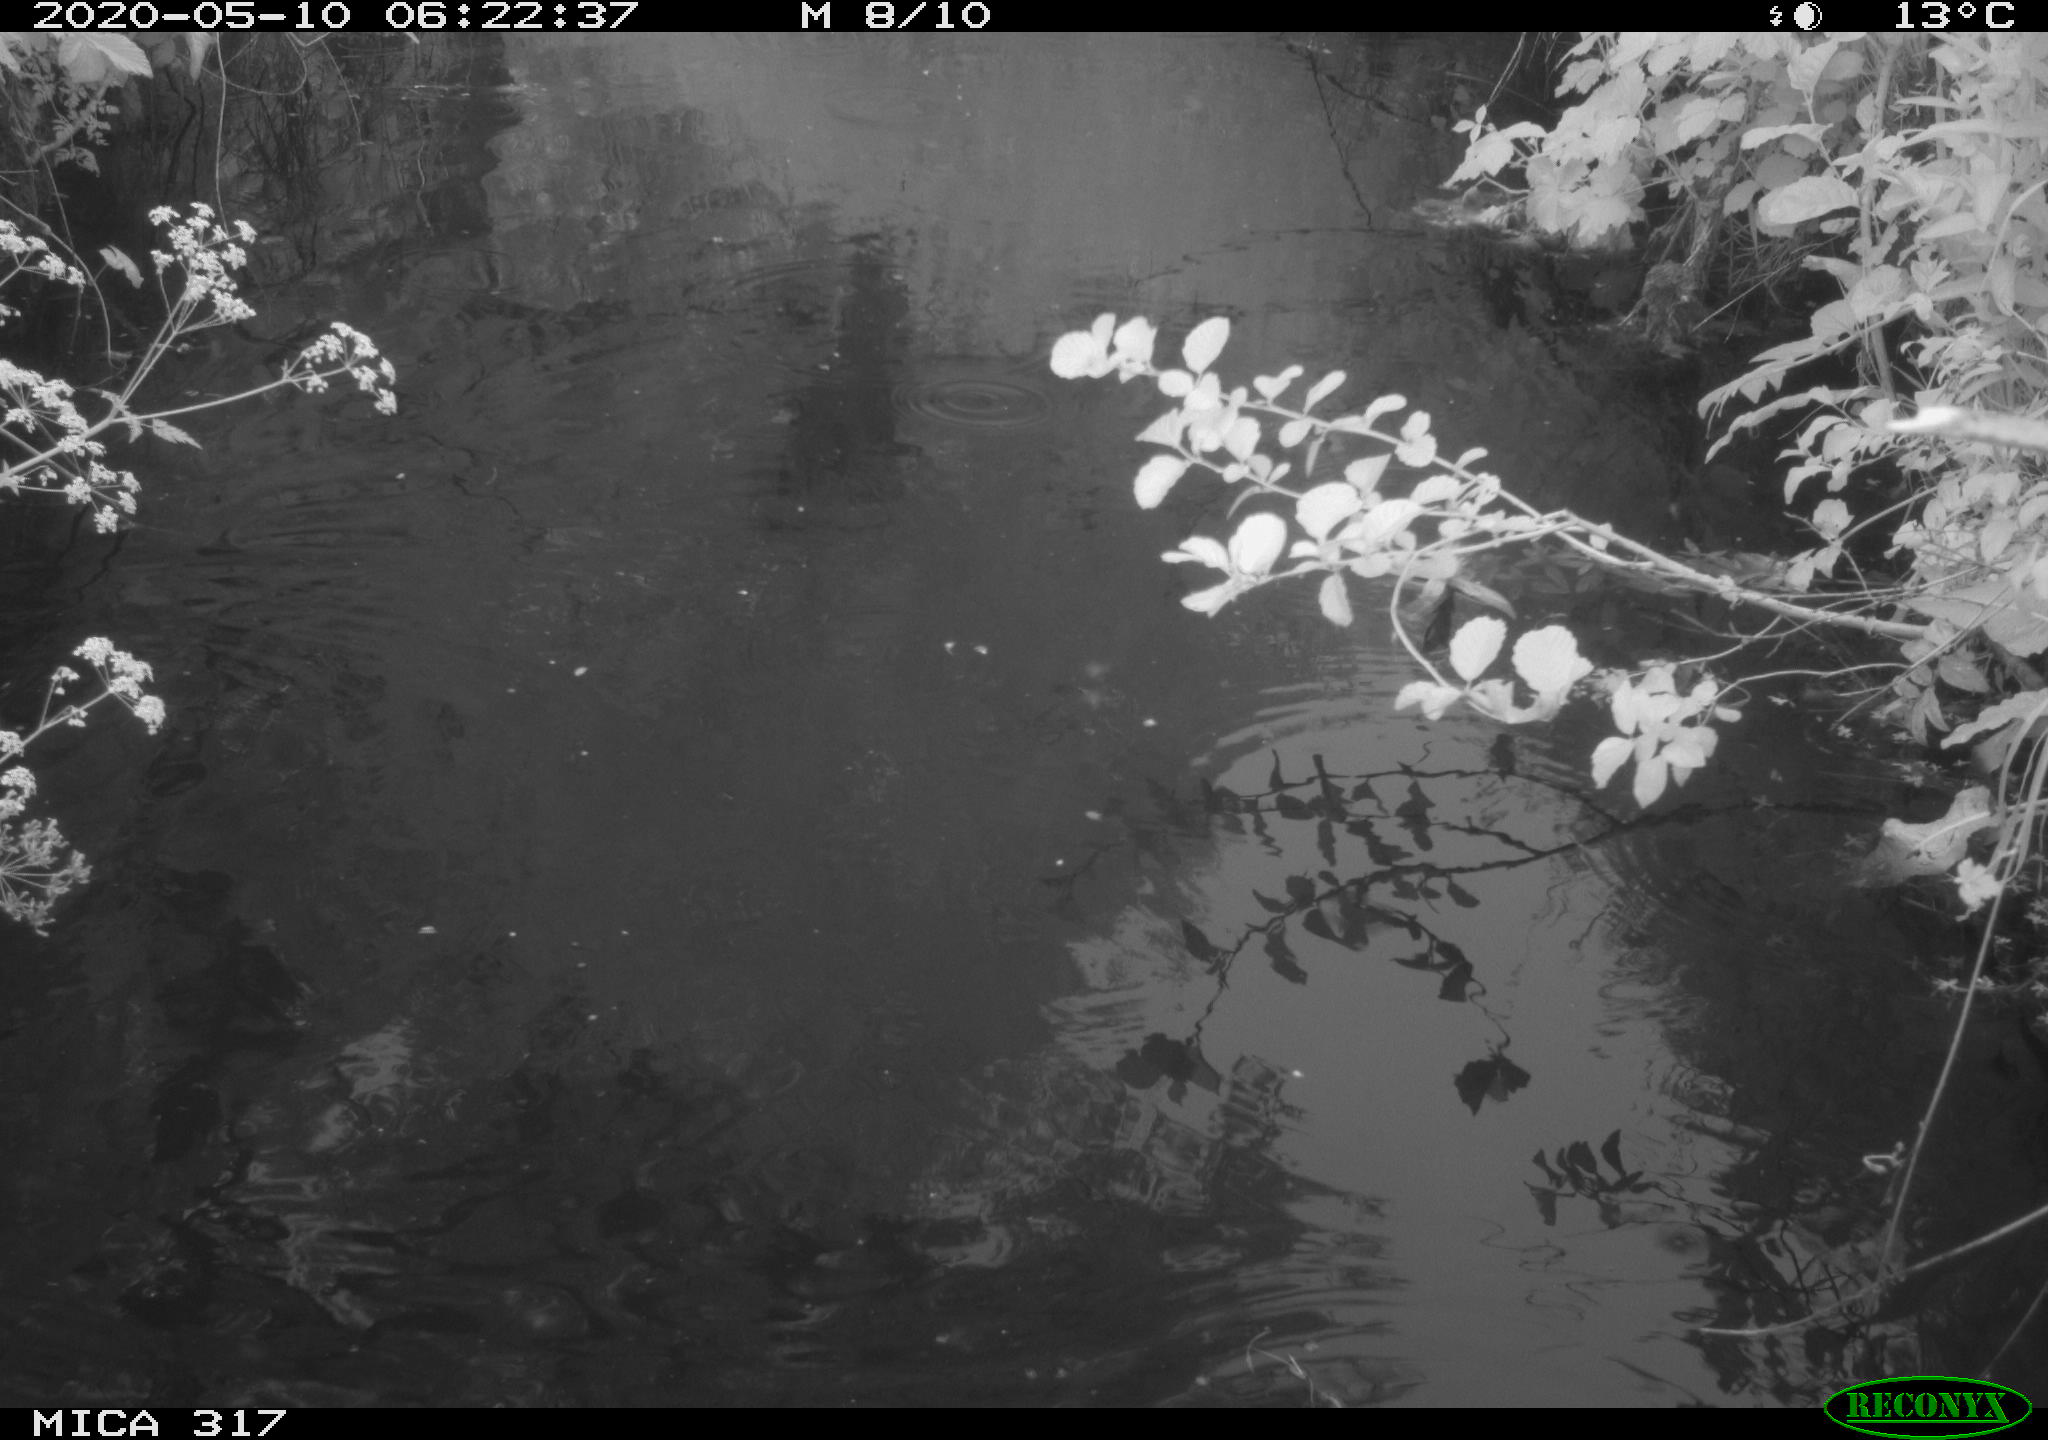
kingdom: Animalia
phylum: Chordata
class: Aves
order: Gruiformes
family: Rallidae
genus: Gallinula
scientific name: Gallinula chloropus
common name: Common moorhen
